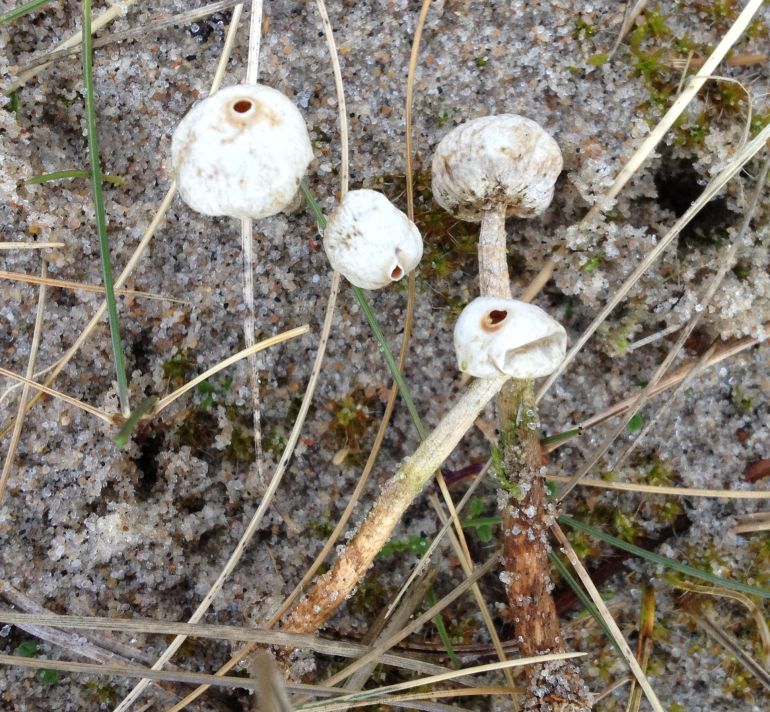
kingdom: Fungi
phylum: Basidiomycota
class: Agaricomycetes
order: Agaricales
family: Agaricaceae
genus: Tulostoma
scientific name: Tulostoma brumale
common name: vinter-stilkbovist
